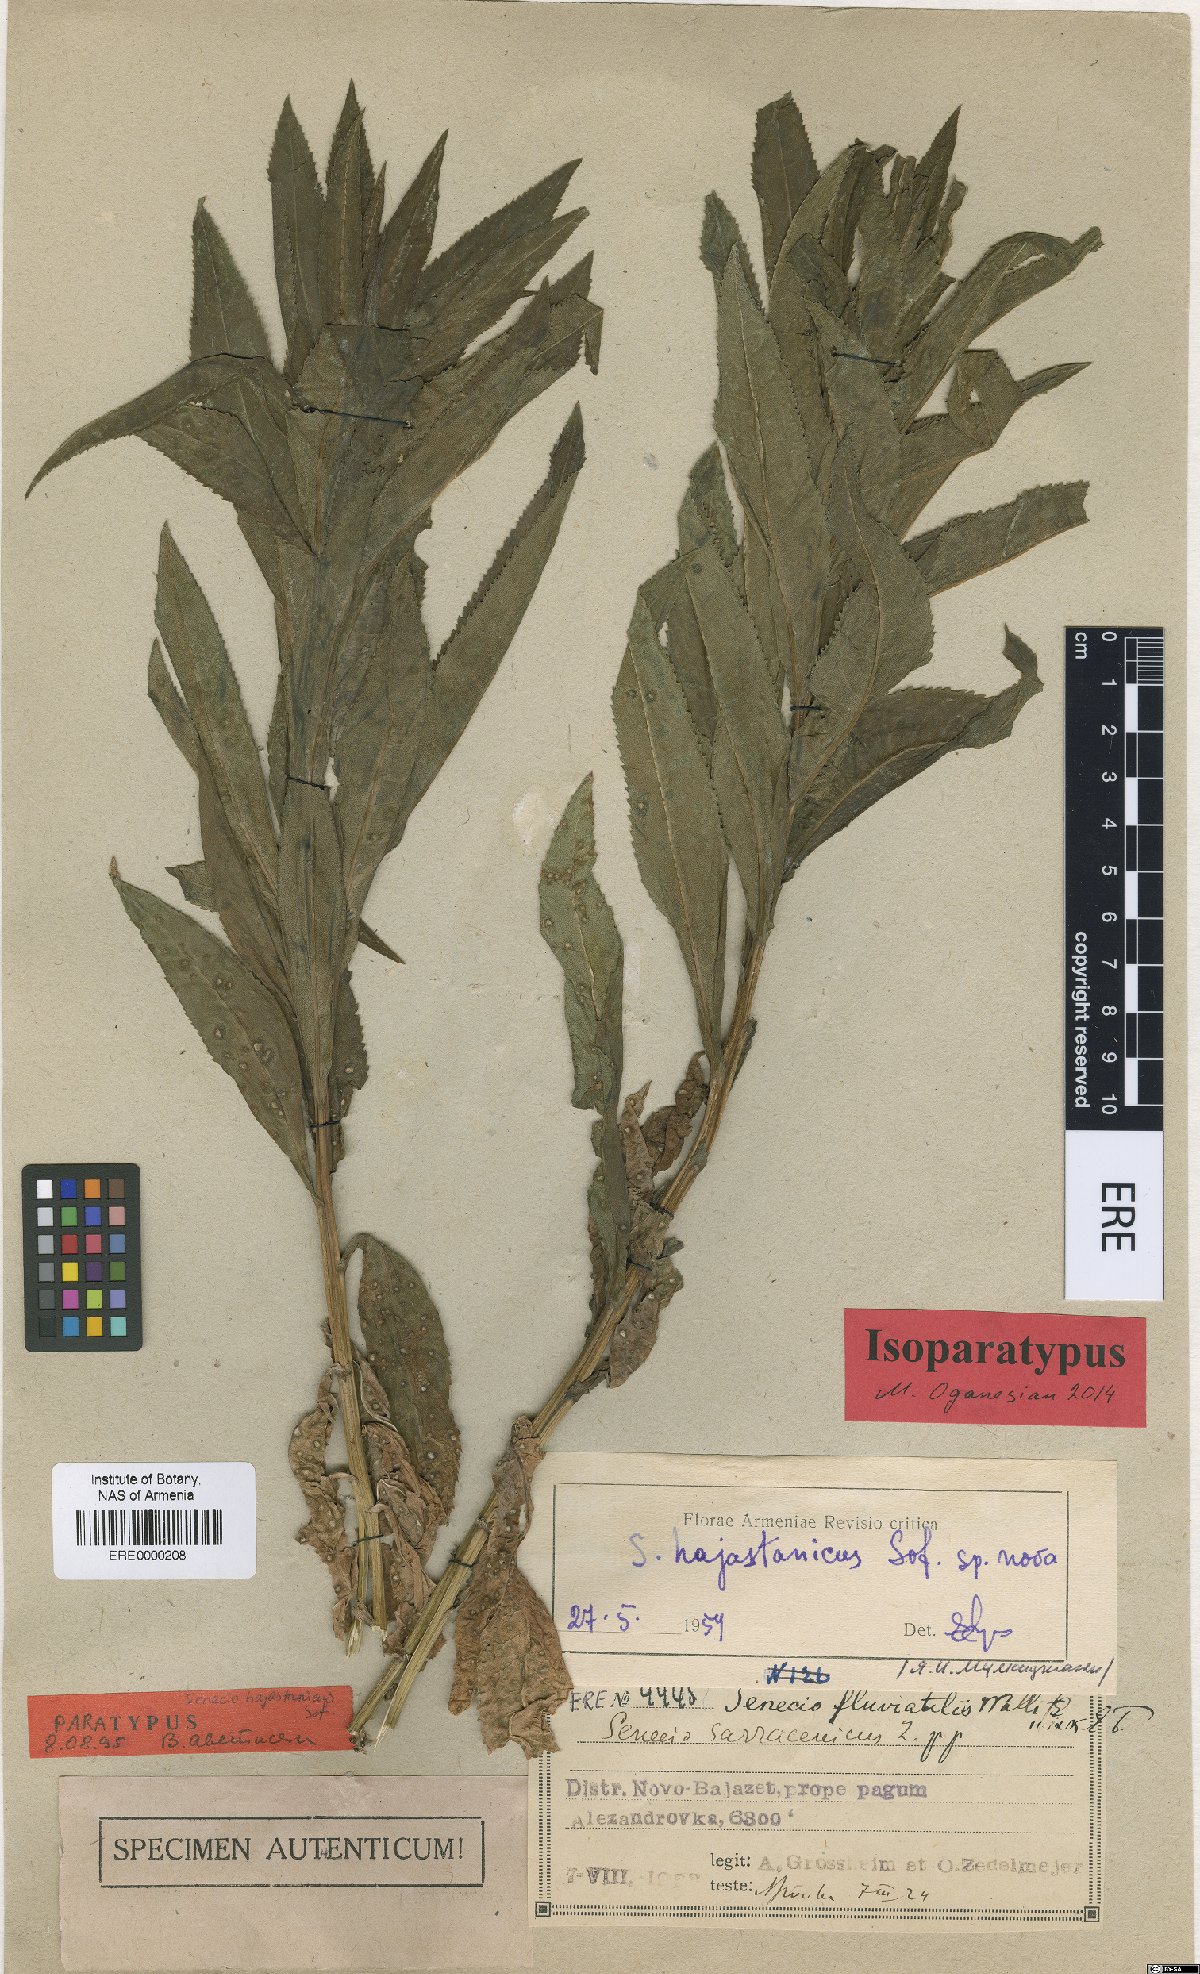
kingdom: Plantae
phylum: Tracheophyta
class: Magnoliopsida
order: Asterales
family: Asteraceae
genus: Senecio
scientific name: Senecio hajastanicus
